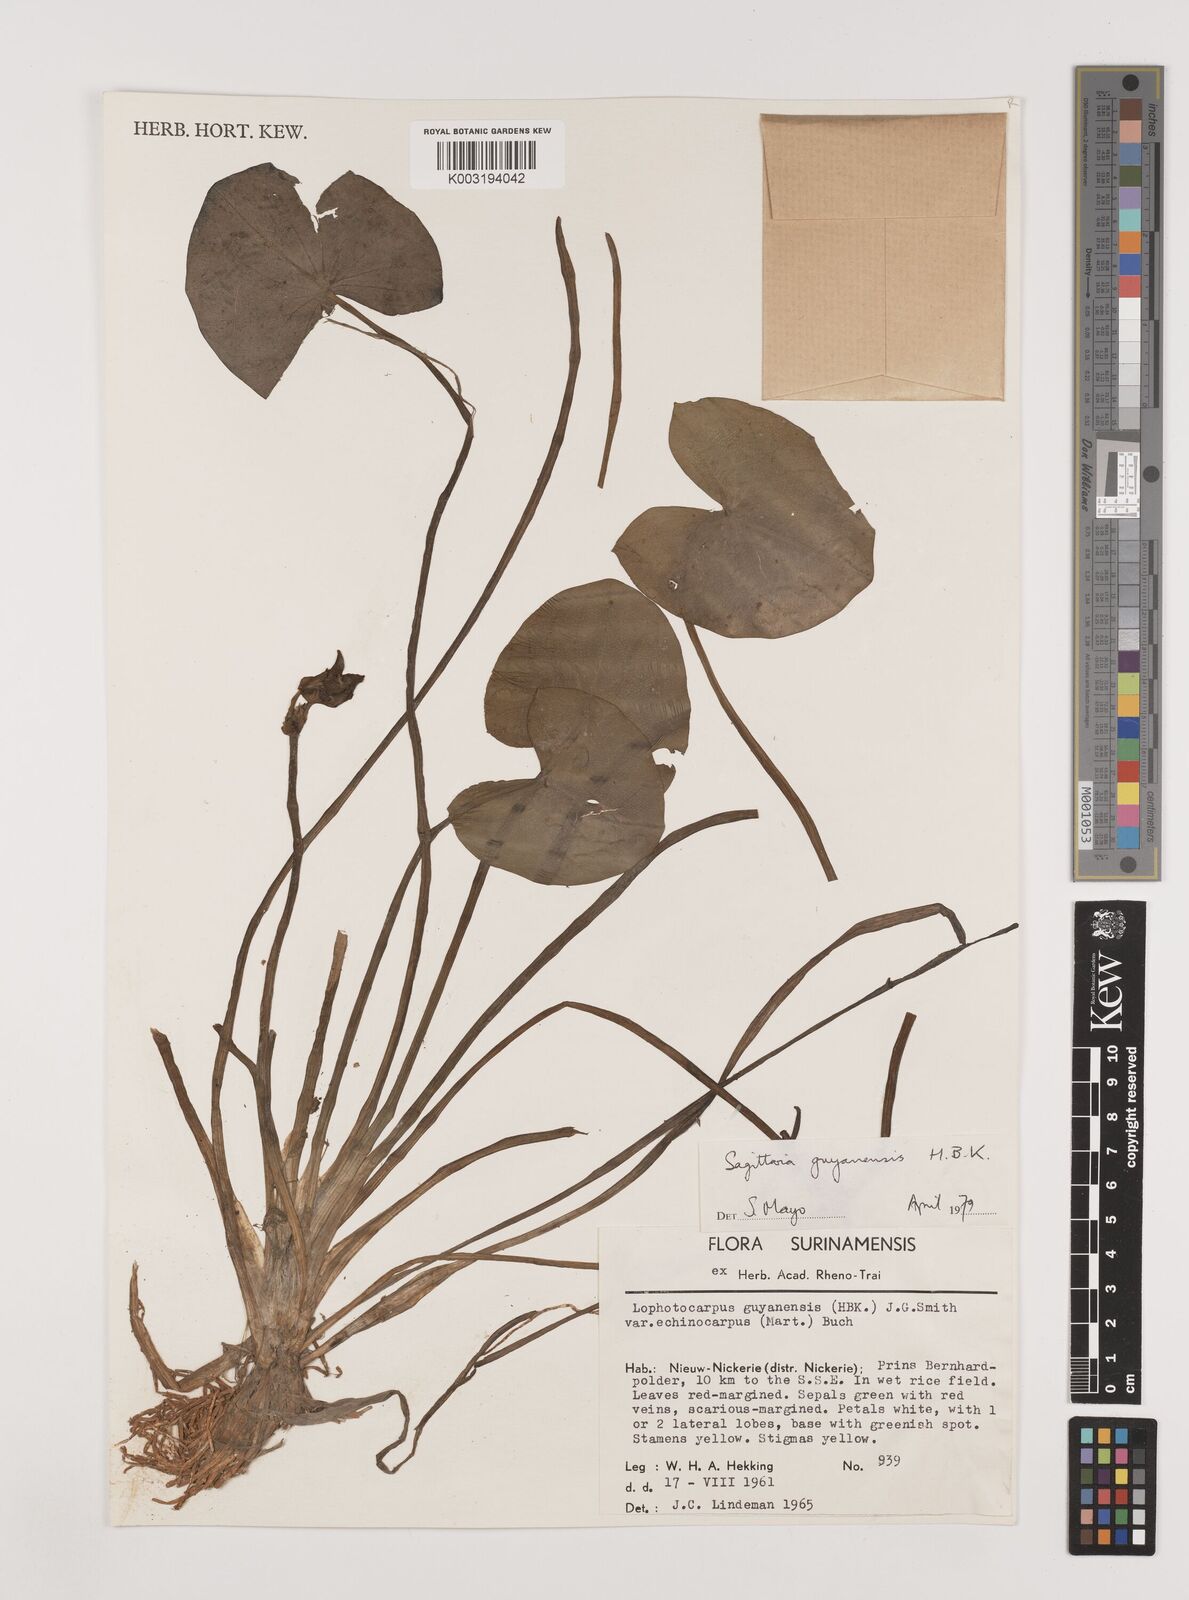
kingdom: Plantae
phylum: Tracheophyta
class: Liliopsida
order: Alismatales
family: Alismataceae
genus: Sagittaria
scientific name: Sagittaria guayanensis
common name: Guyanese arrowhead
